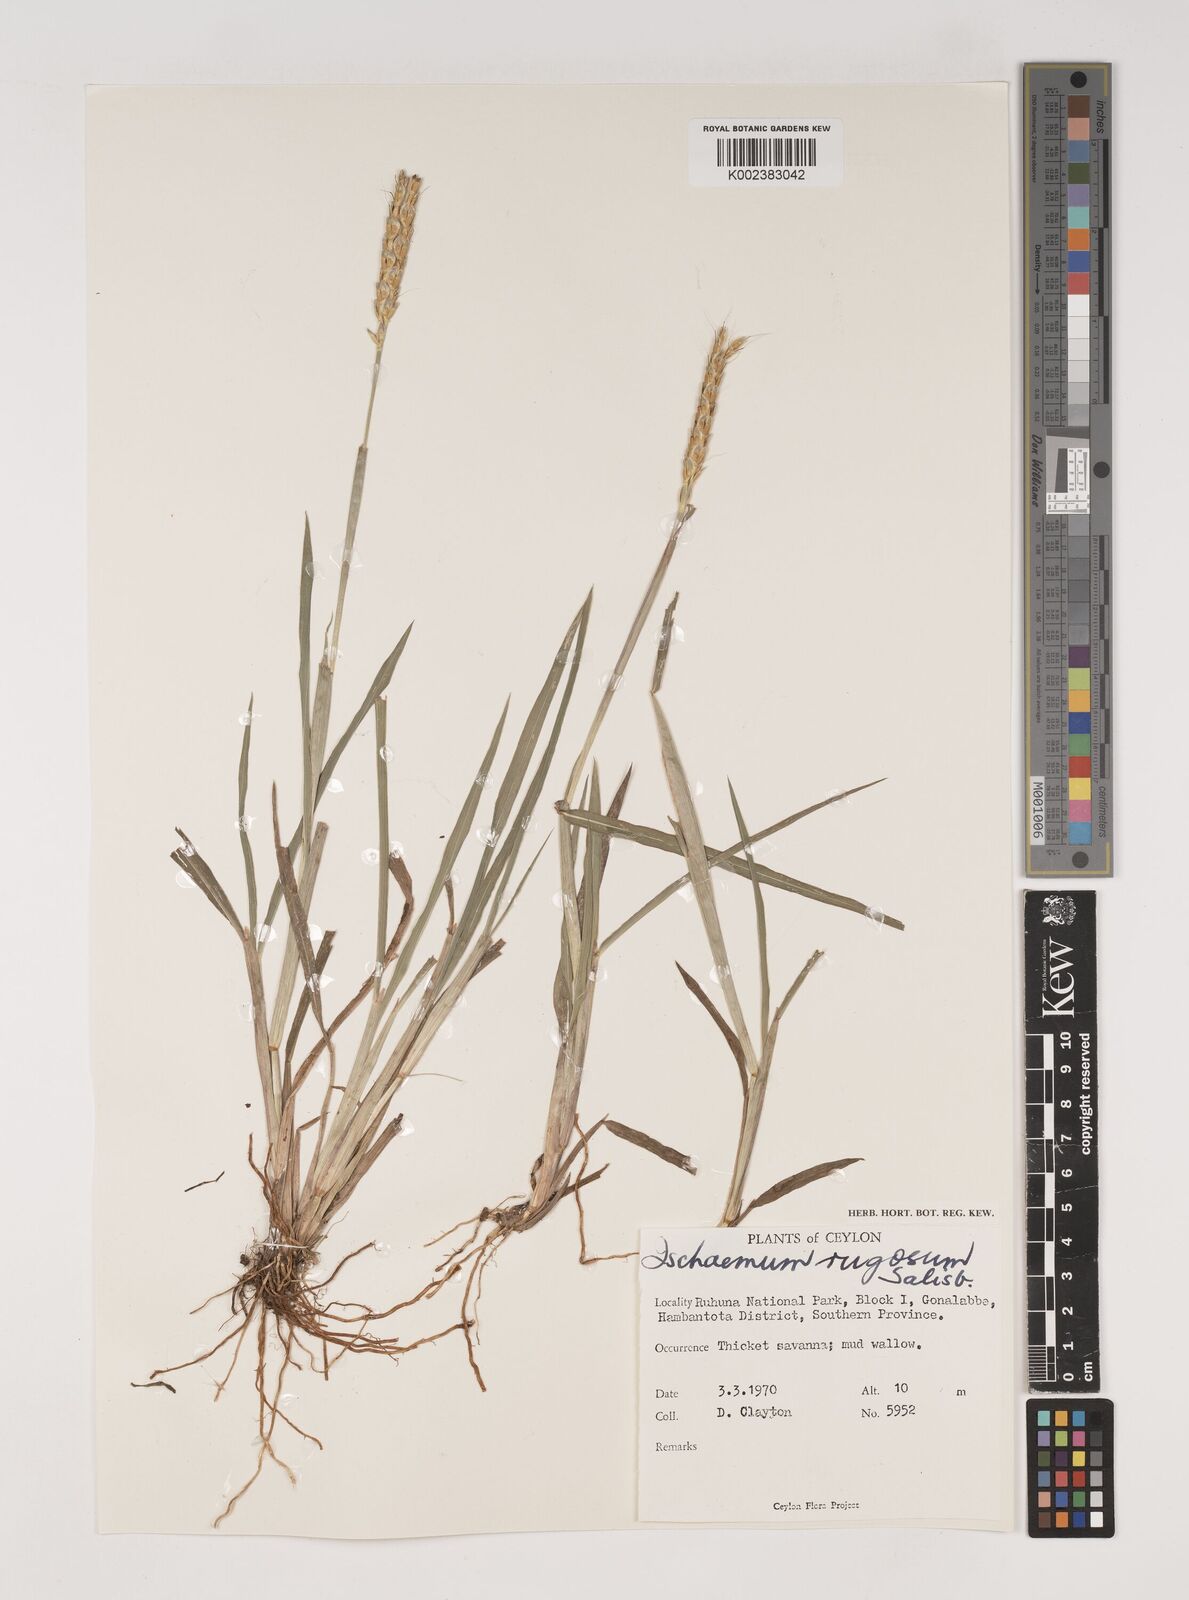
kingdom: Plantae
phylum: Tracheophyta
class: Liliopsida
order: Poales
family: Poaceae
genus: Ischaemum
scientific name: Ischaemum rugosum
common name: Saramatta grass
